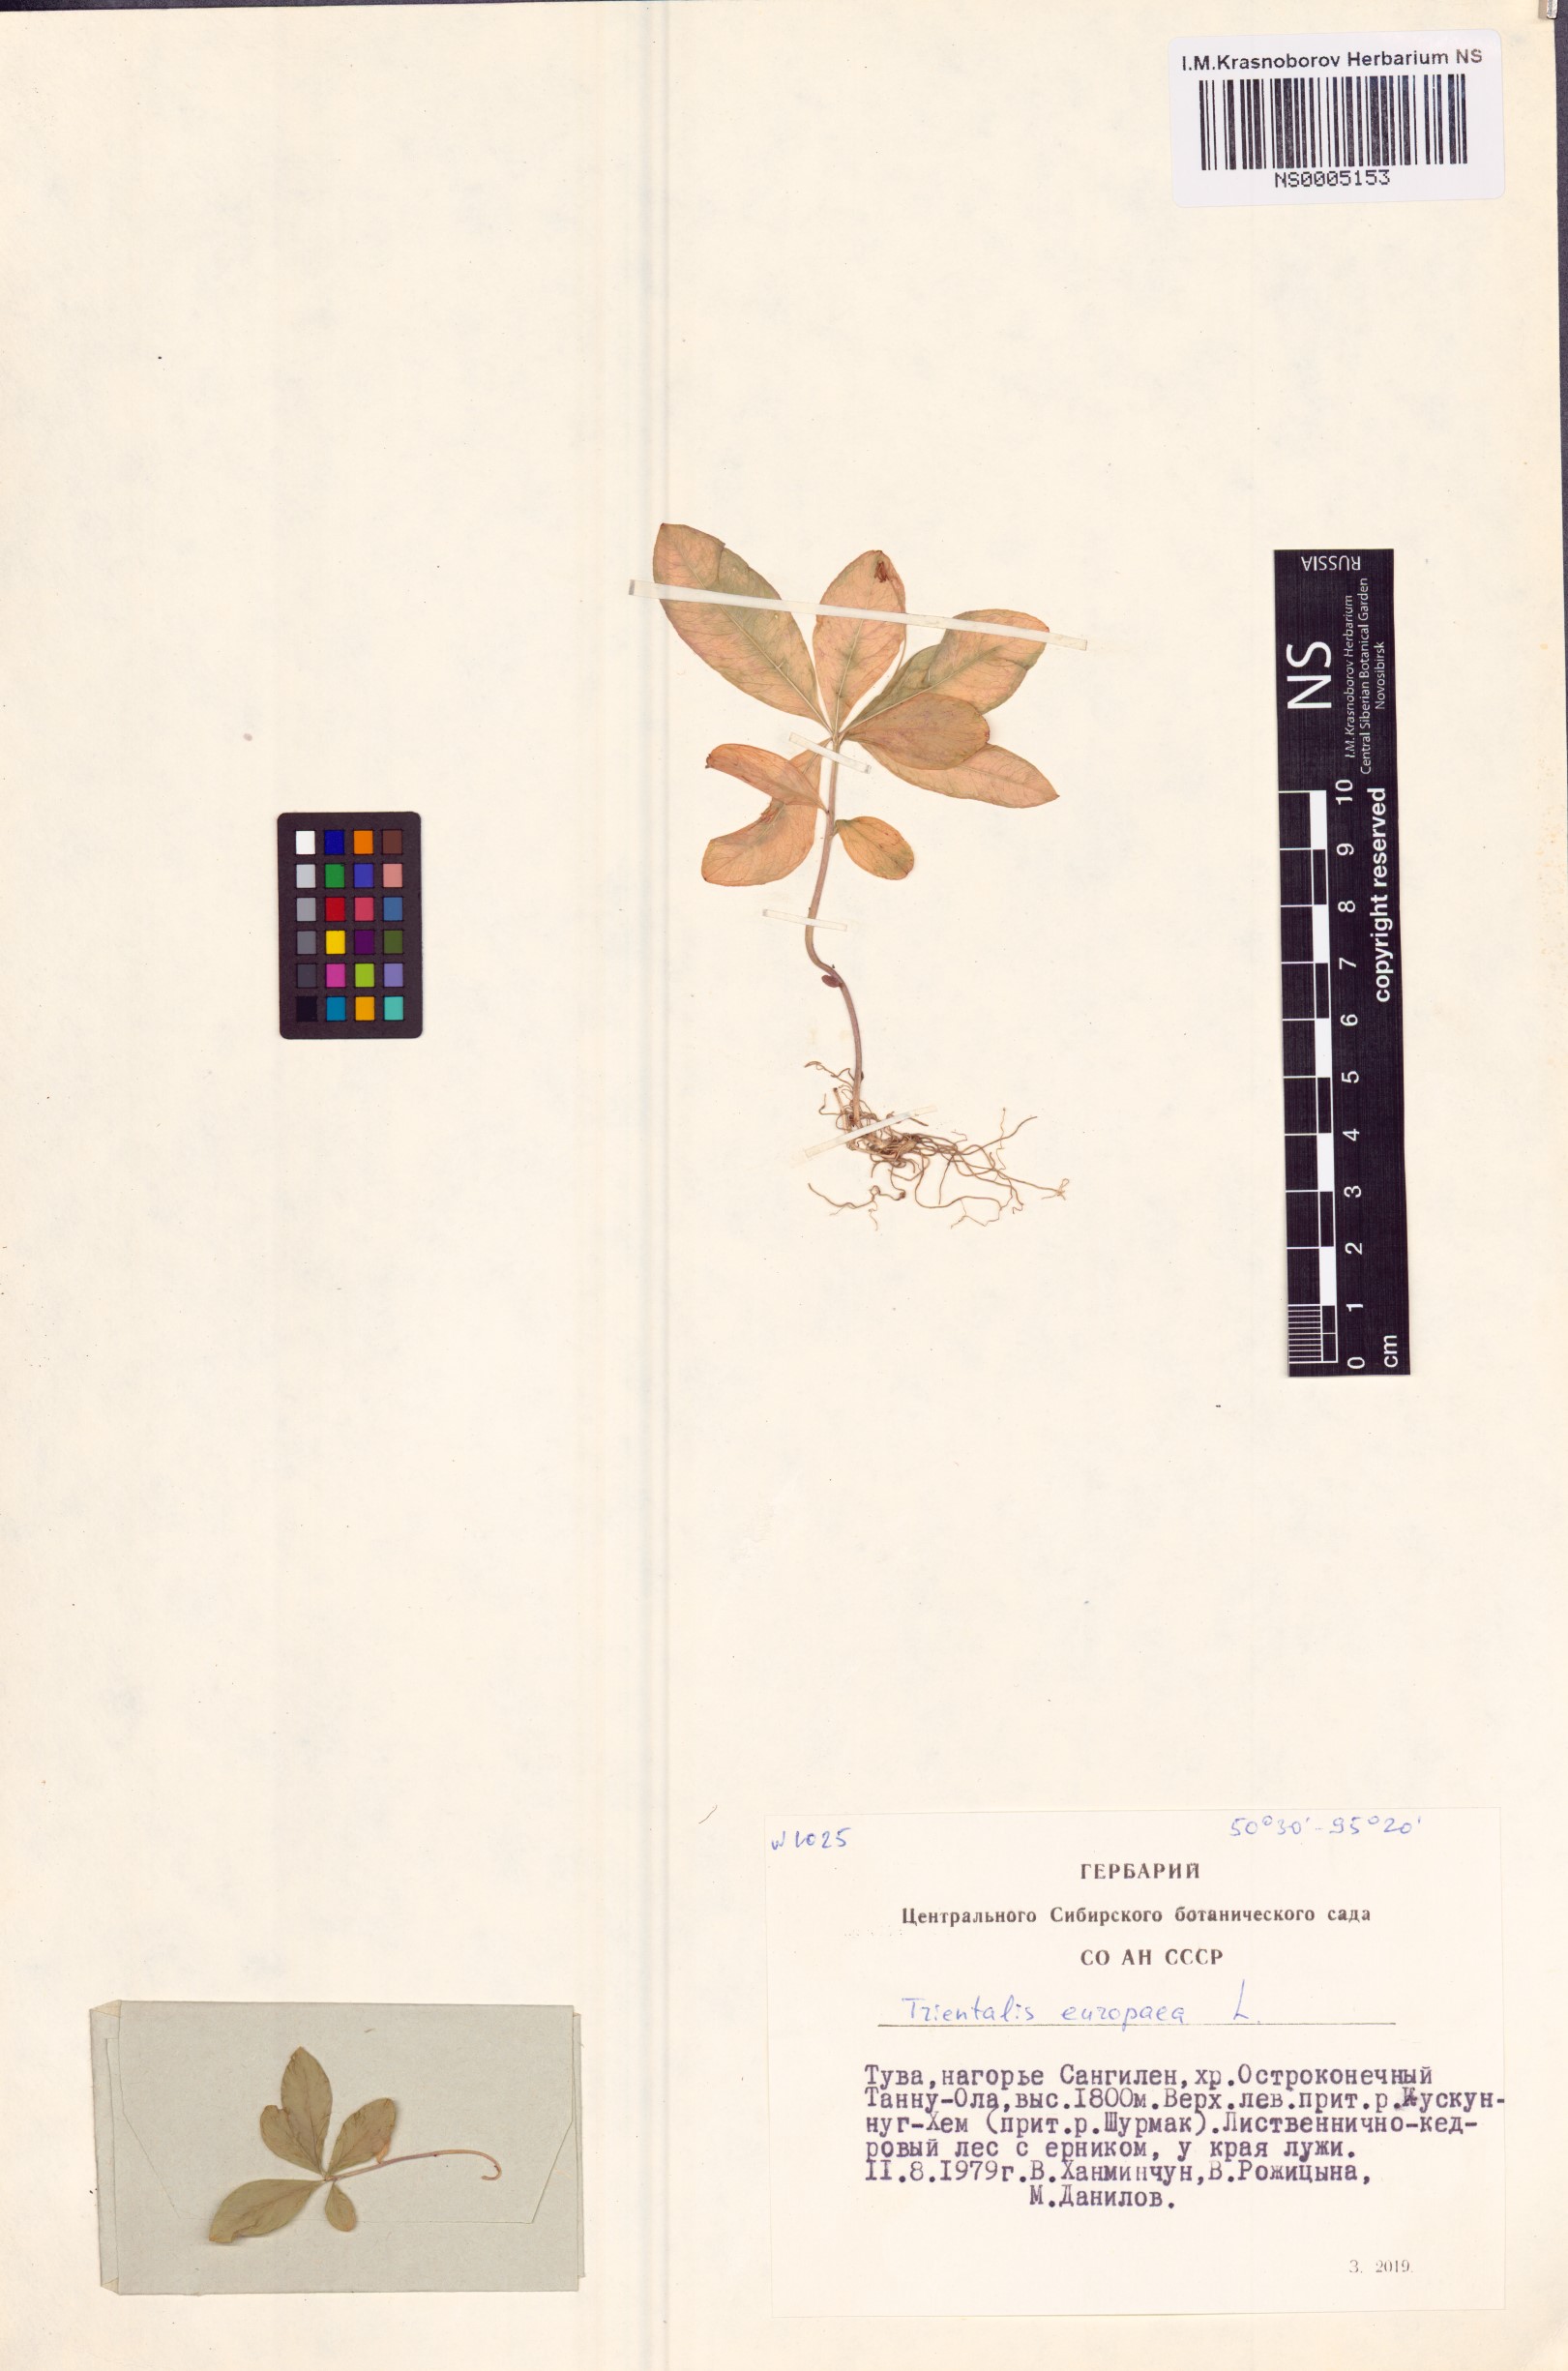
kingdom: Plantae
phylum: Tracheophyta
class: Magnoliopsida
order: Ericales
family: Primulaceae
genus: Lysimachia
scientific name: Lysimachia europaea
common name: Arctic starflower
